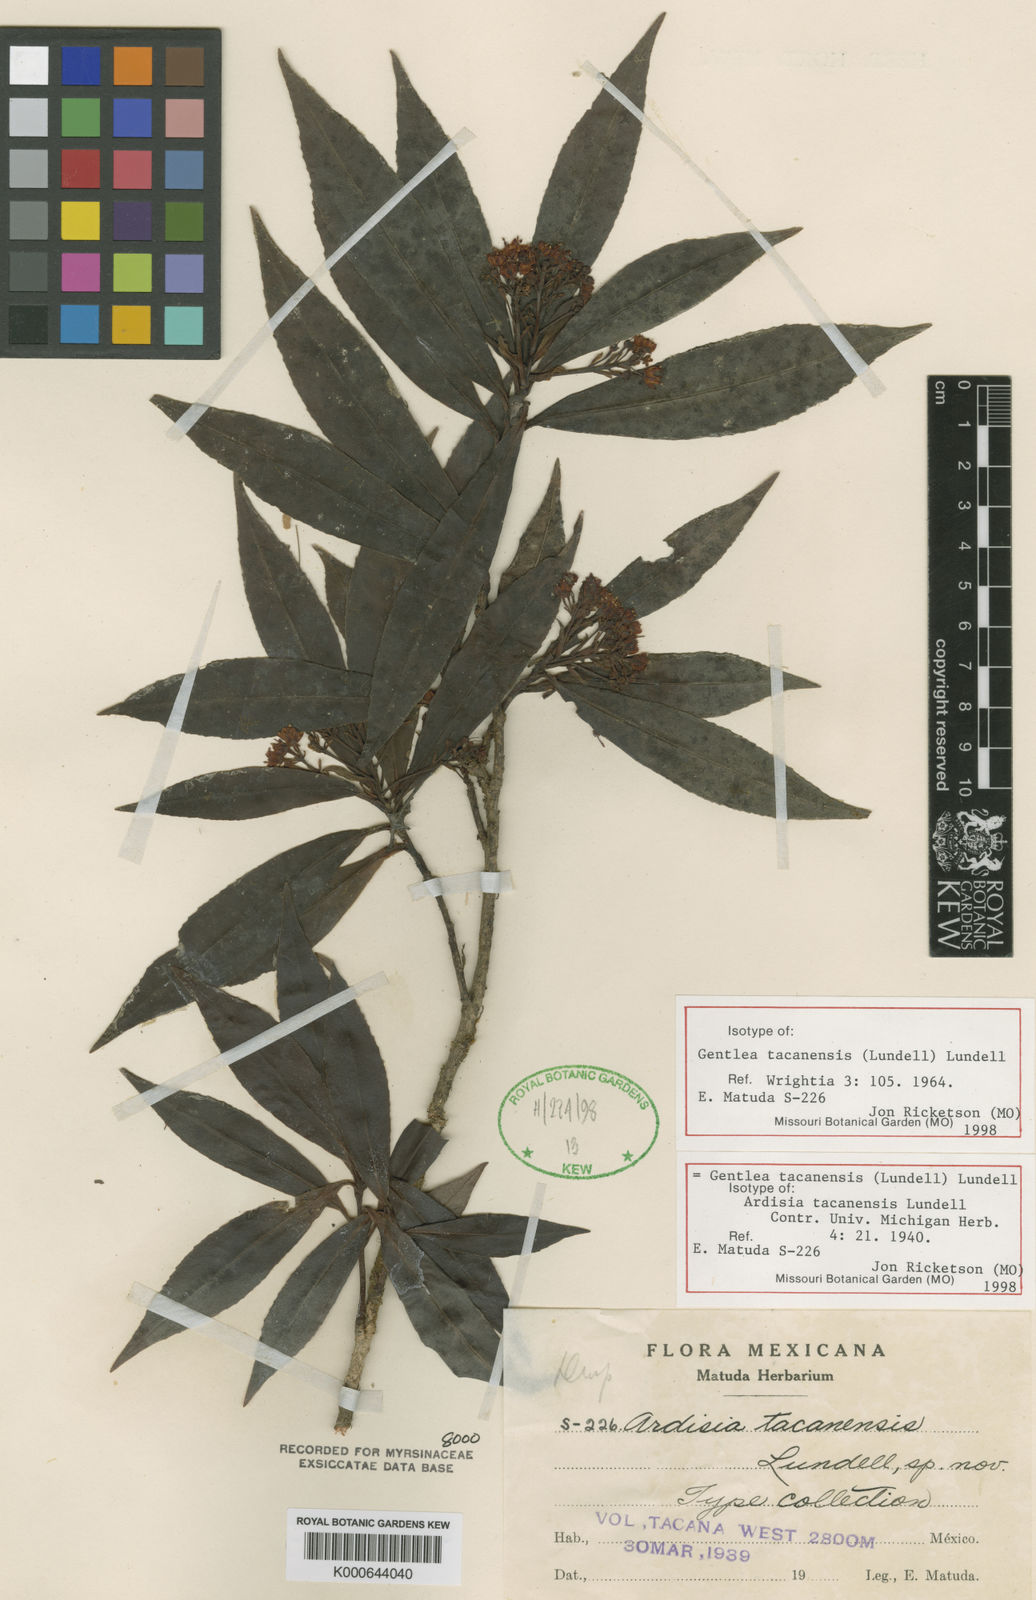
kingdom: Plantae
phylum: Tracheophyta
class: Magnoliopsida
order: Ericales
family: Primulaceae
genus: Gentlea
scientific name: Gentlea tacanensis
